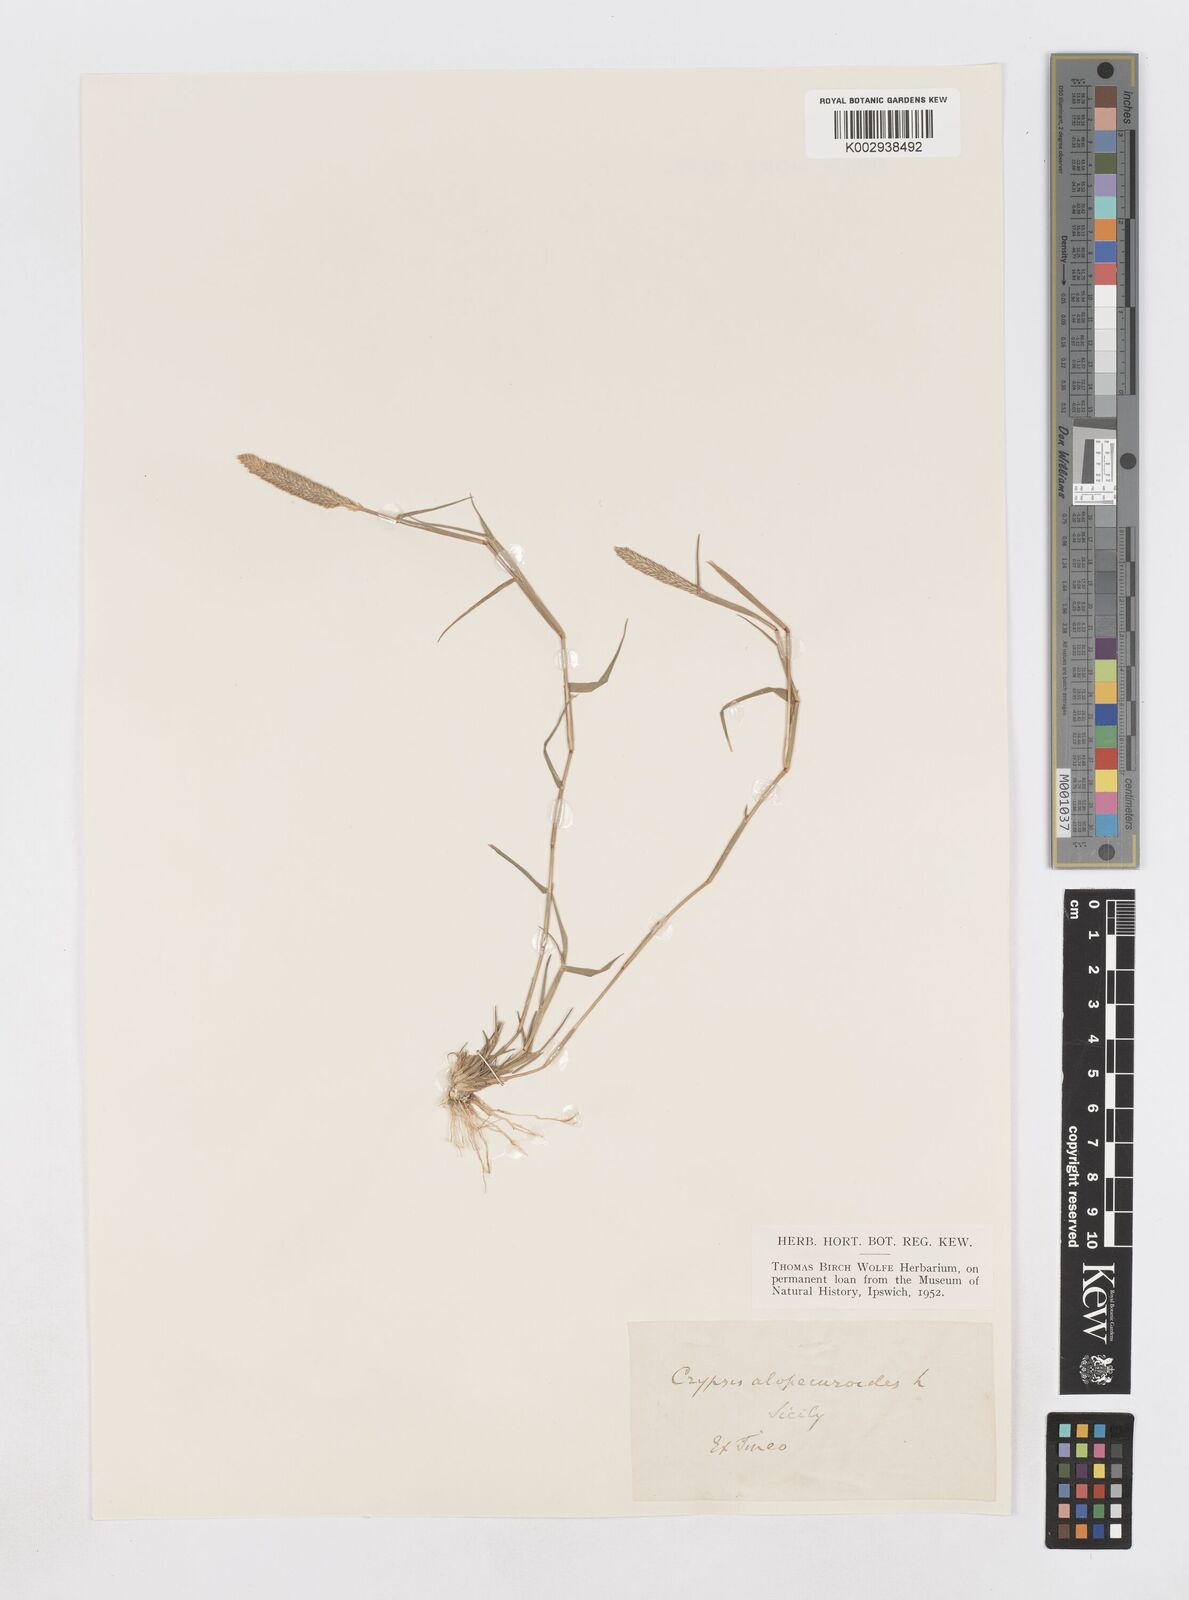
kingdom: Plantae
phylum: Tracheophyta
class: Liliopsida
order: Poales
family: Poaceae
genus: Sporobolus
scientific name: Sporobolus alopecuroides
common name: Foxtail pricklegrass
